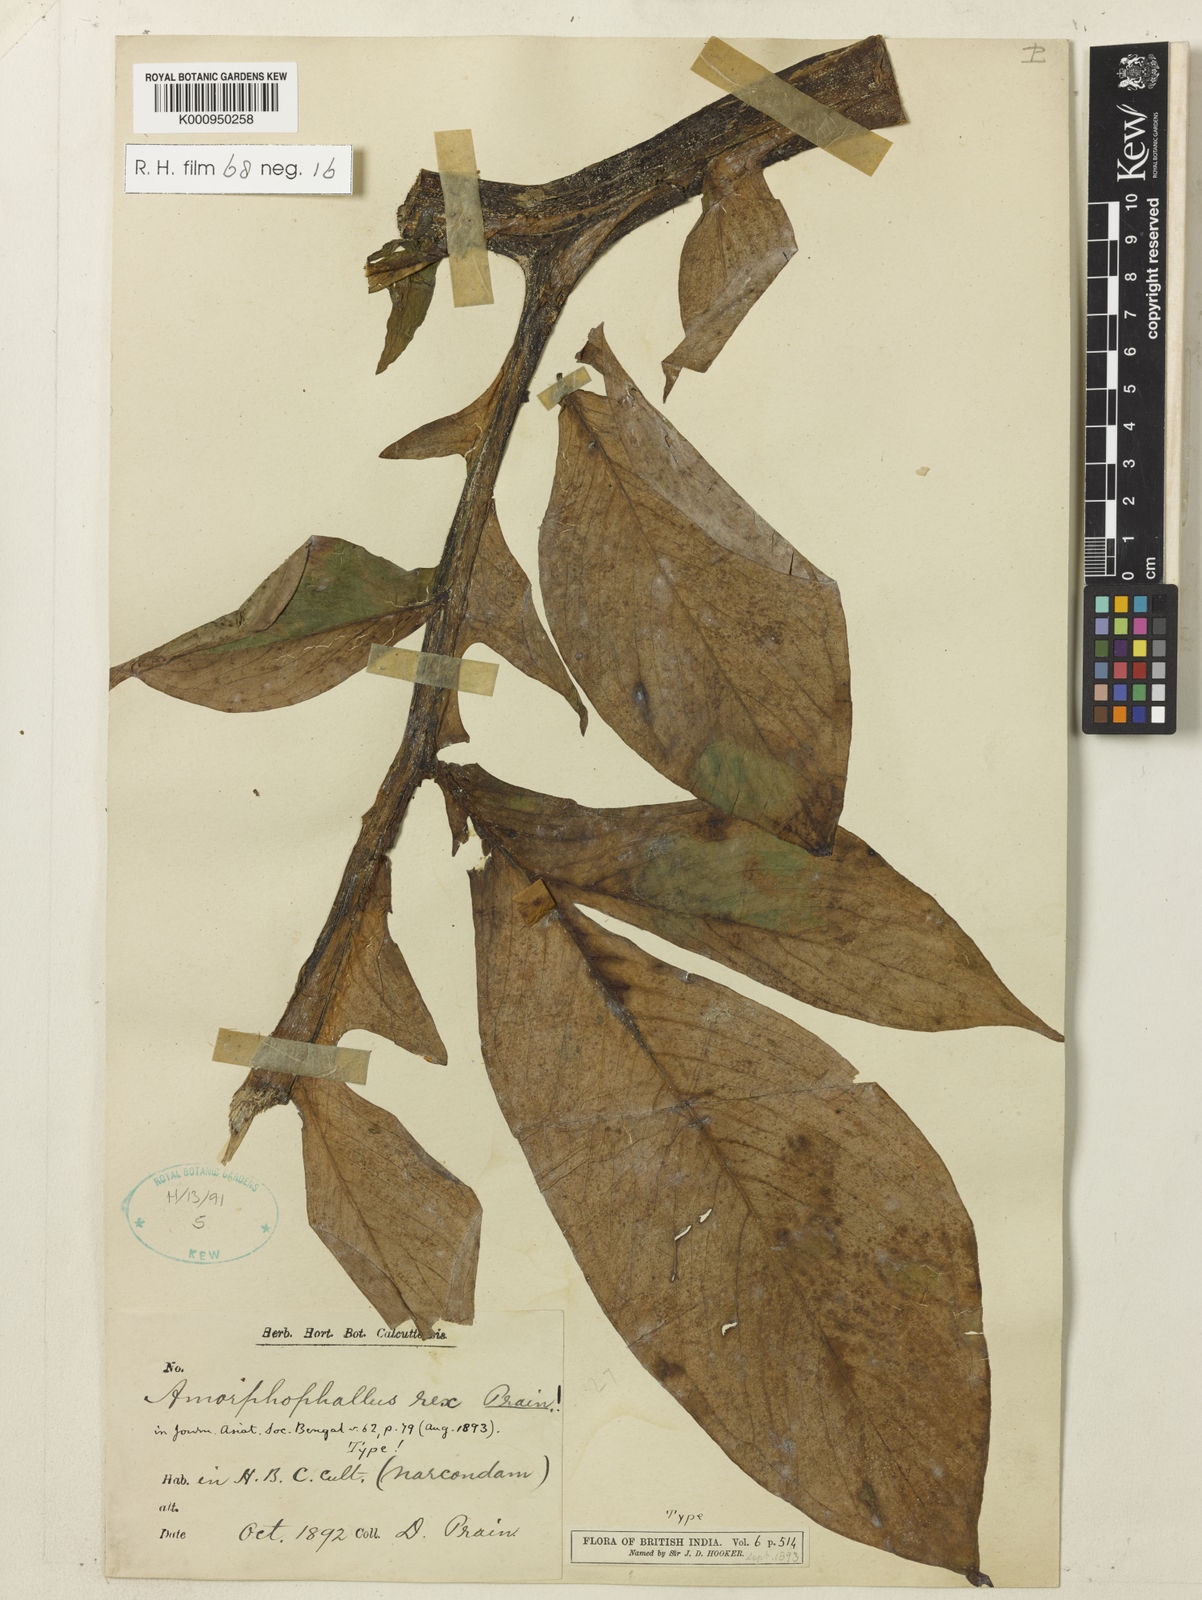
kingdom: Plantae
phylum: Tracheophyta
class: Liliopsida
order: Alismatales
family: Araceae
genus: Amorphophallus
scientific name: Amorphophallus paeoniifolius
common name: Telinga-potato
